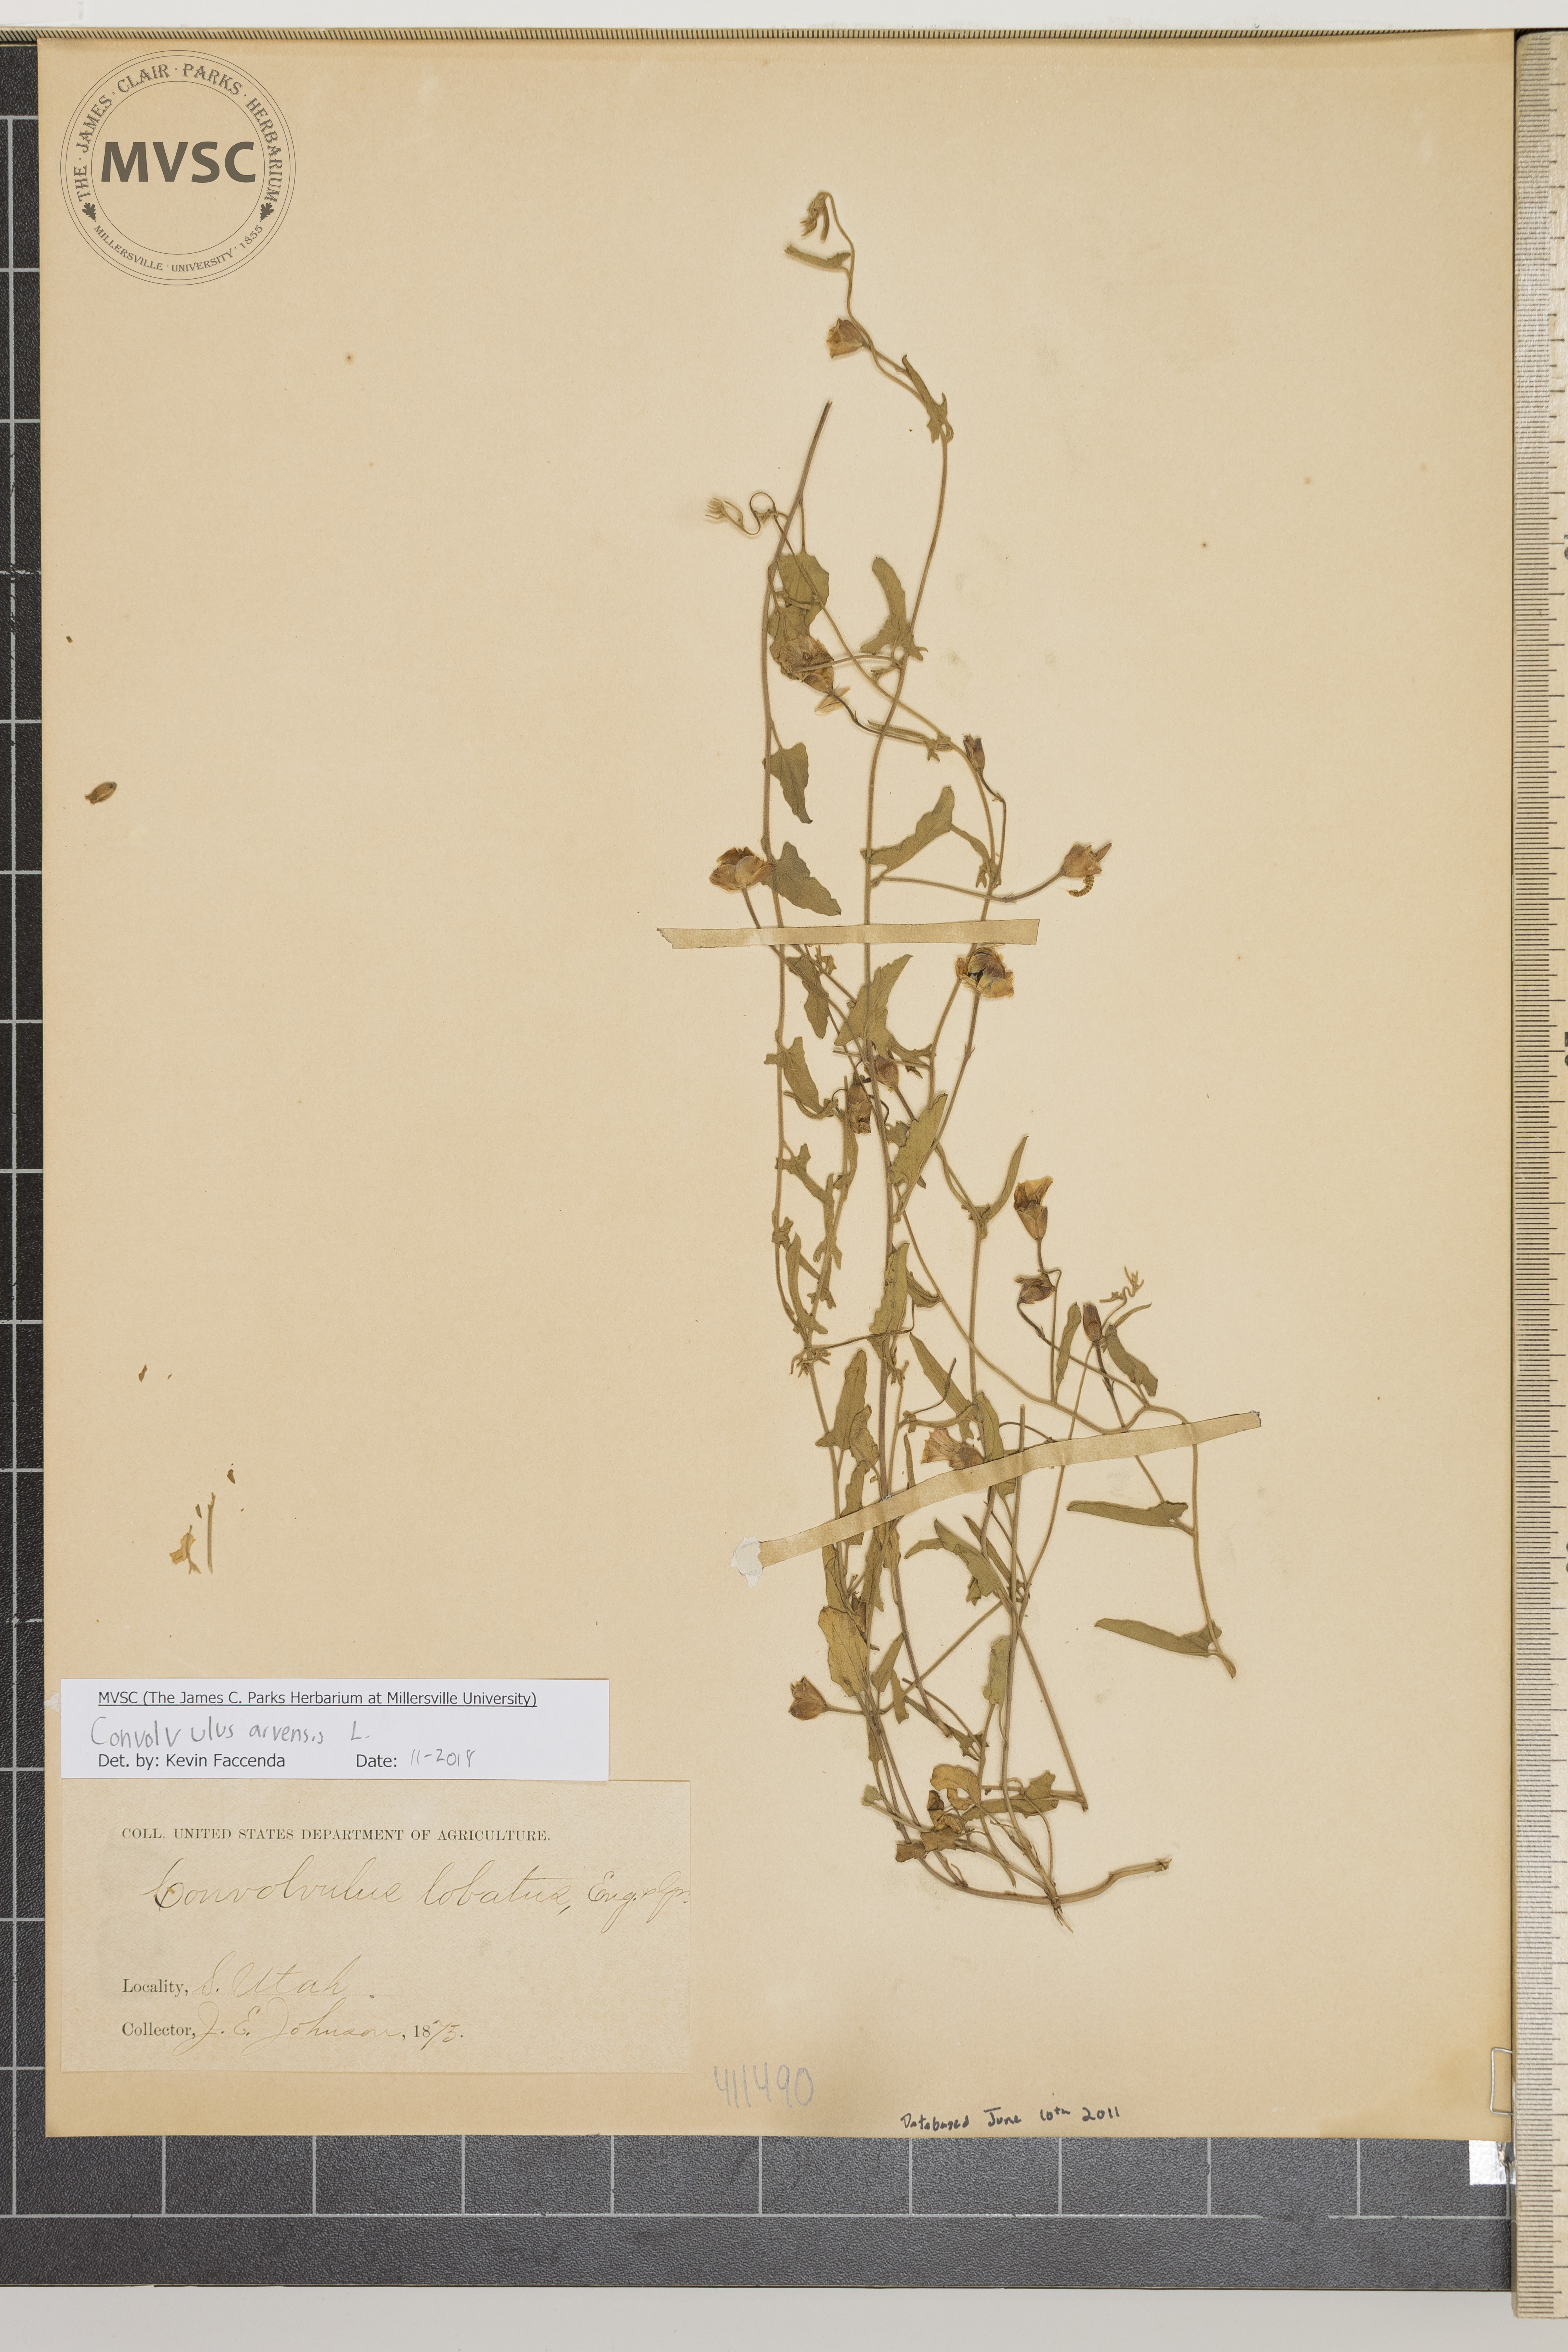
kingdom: Plantae
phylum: Tracheophyta
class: Magnoliopsida
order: Solanales
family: Convolvulaceae
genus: Convolvulus
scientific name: Convolvulus arvensis
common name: Field bindweed
